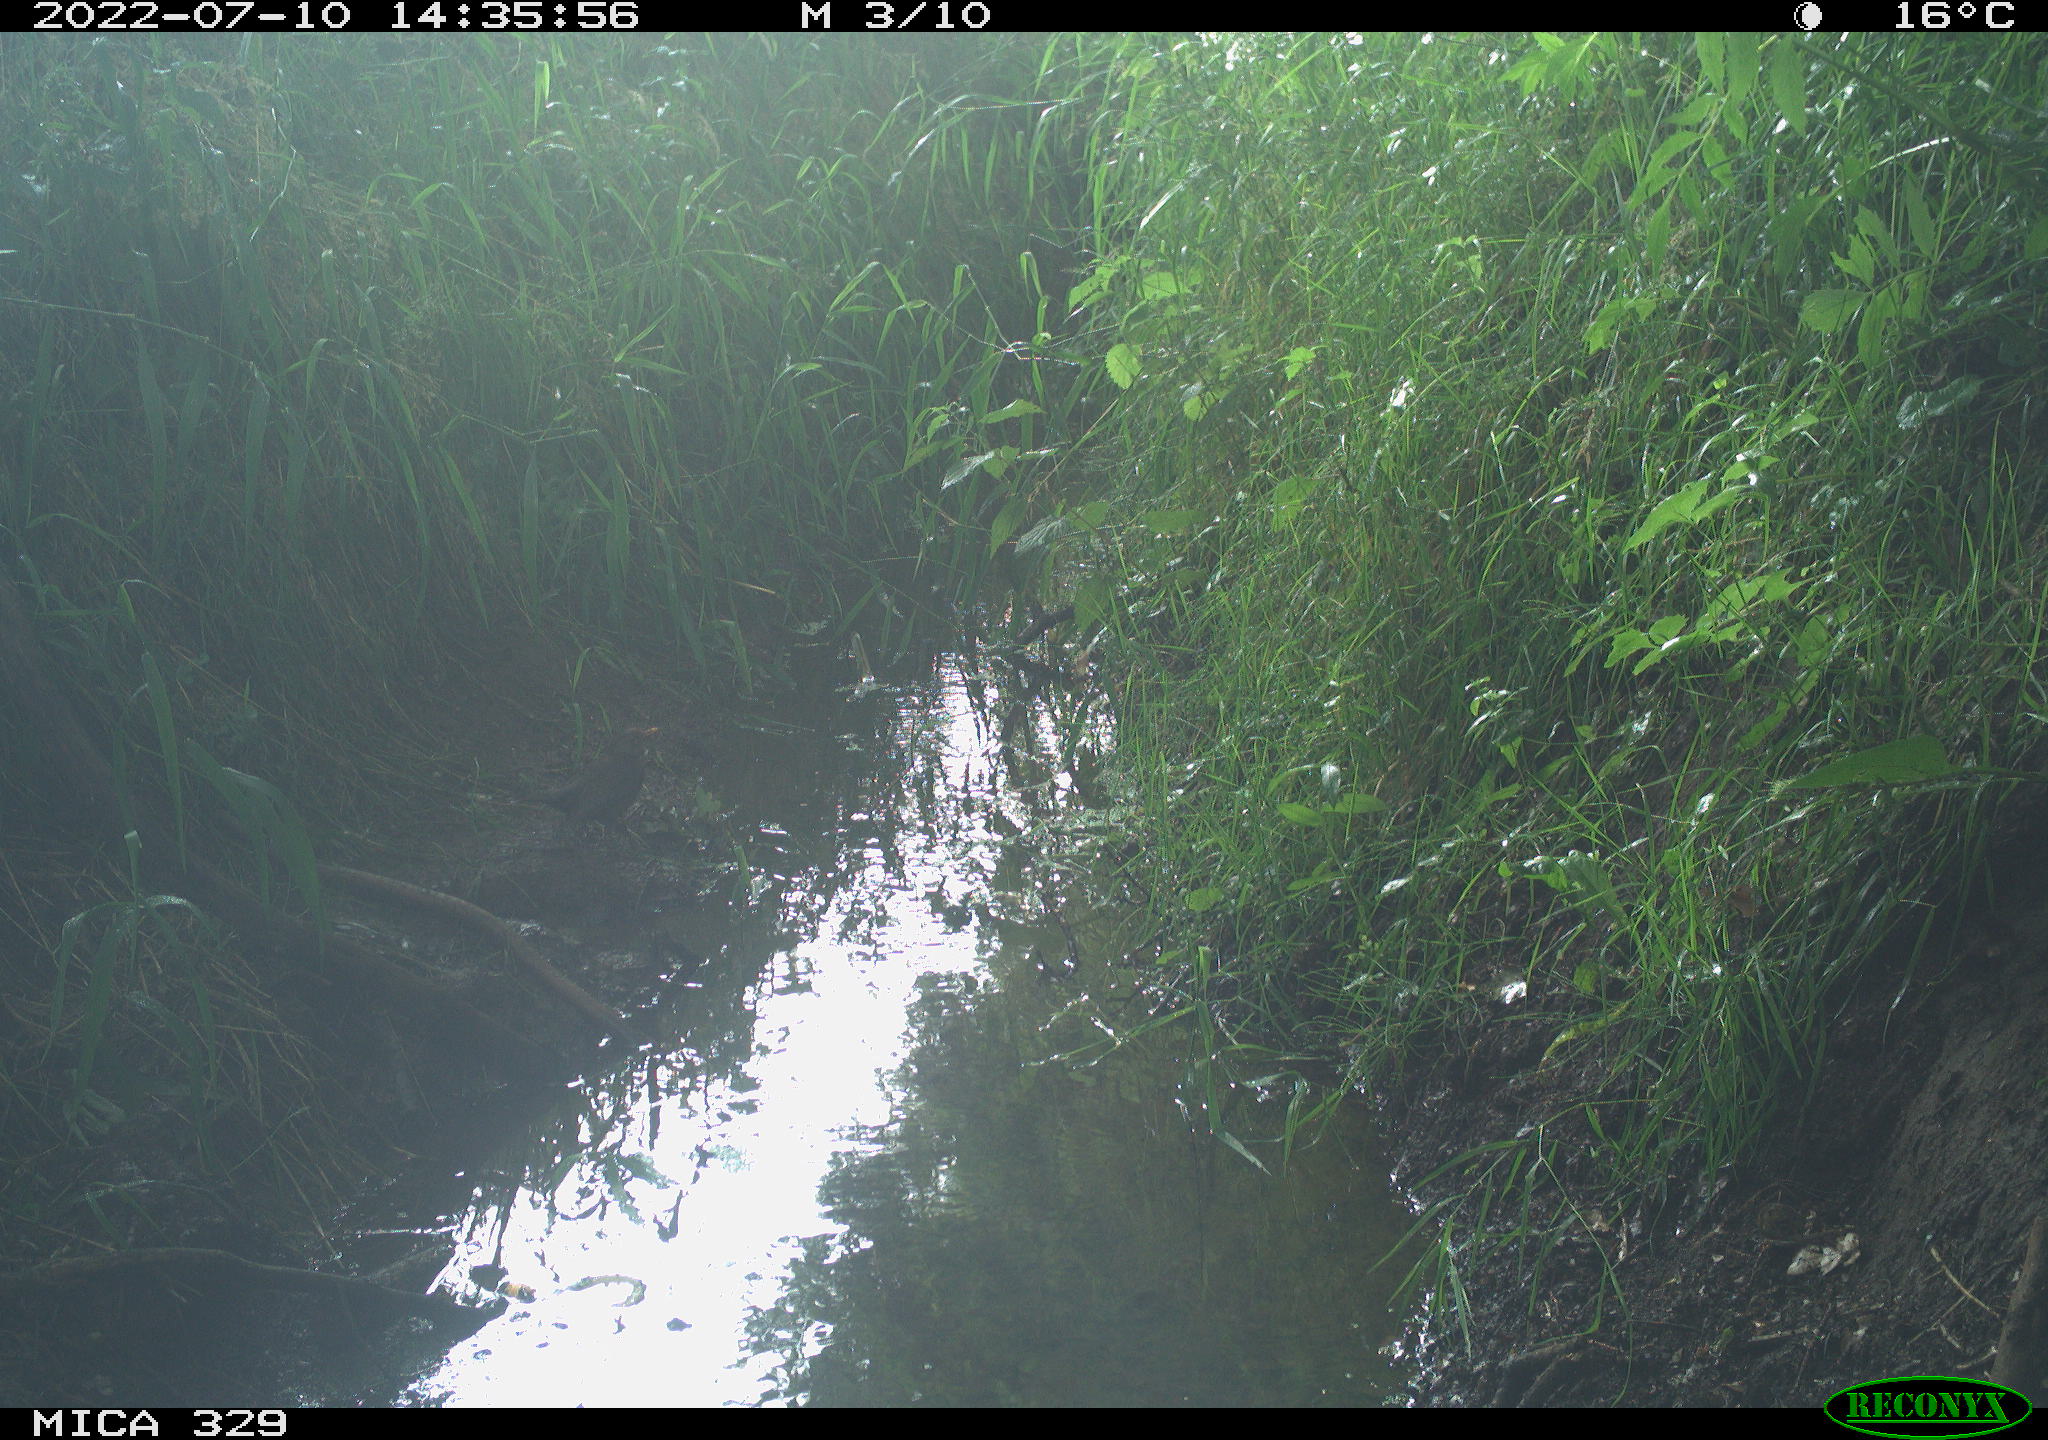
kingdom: Animalia
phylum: Chordata
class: Aves
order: Passeriformes
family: Turdidae
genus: Turdus
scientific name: Turdus merula
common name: Common blackbird
